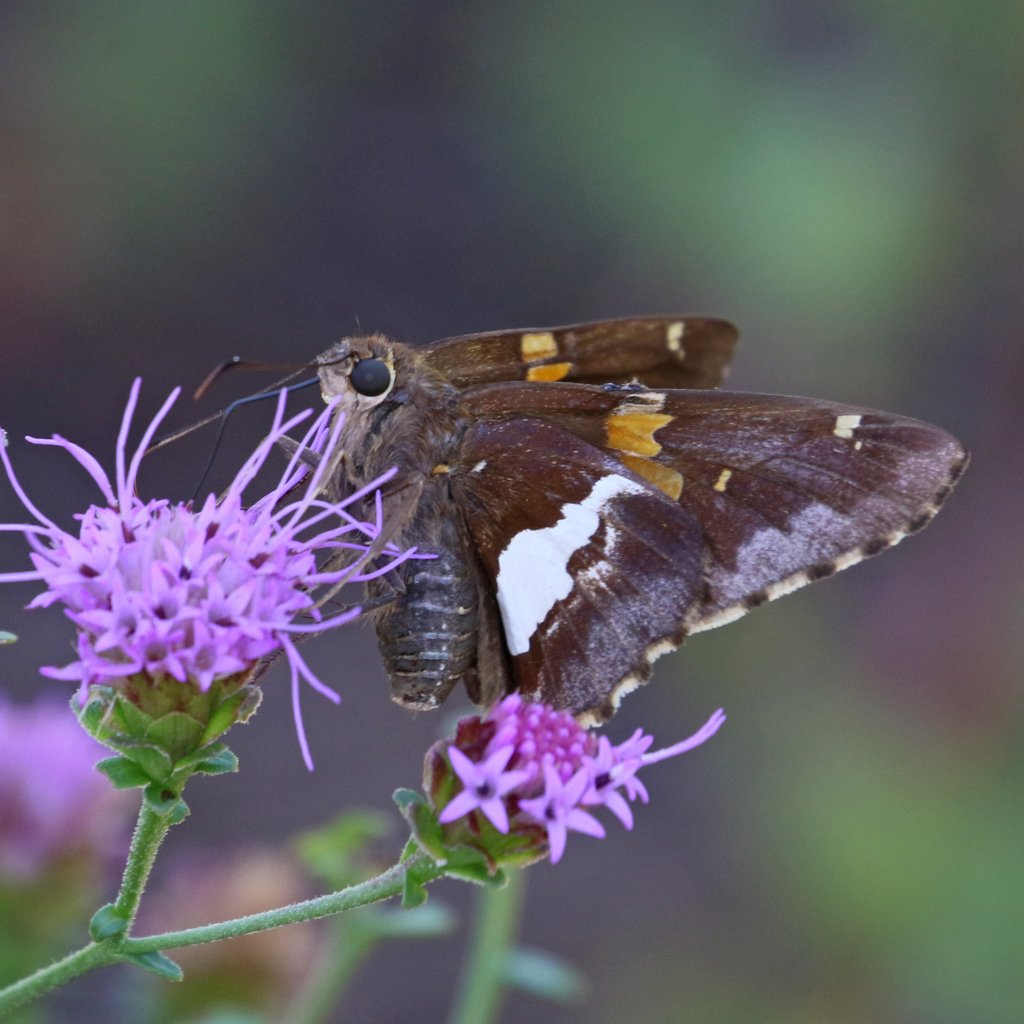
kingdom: Animalia
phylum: Arthropoda
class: Insecta
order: Lepidoptera
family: Hesperiidae
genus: Epargyreus
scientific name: Epargyreus clarus
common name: Silver-spotted Skipper
